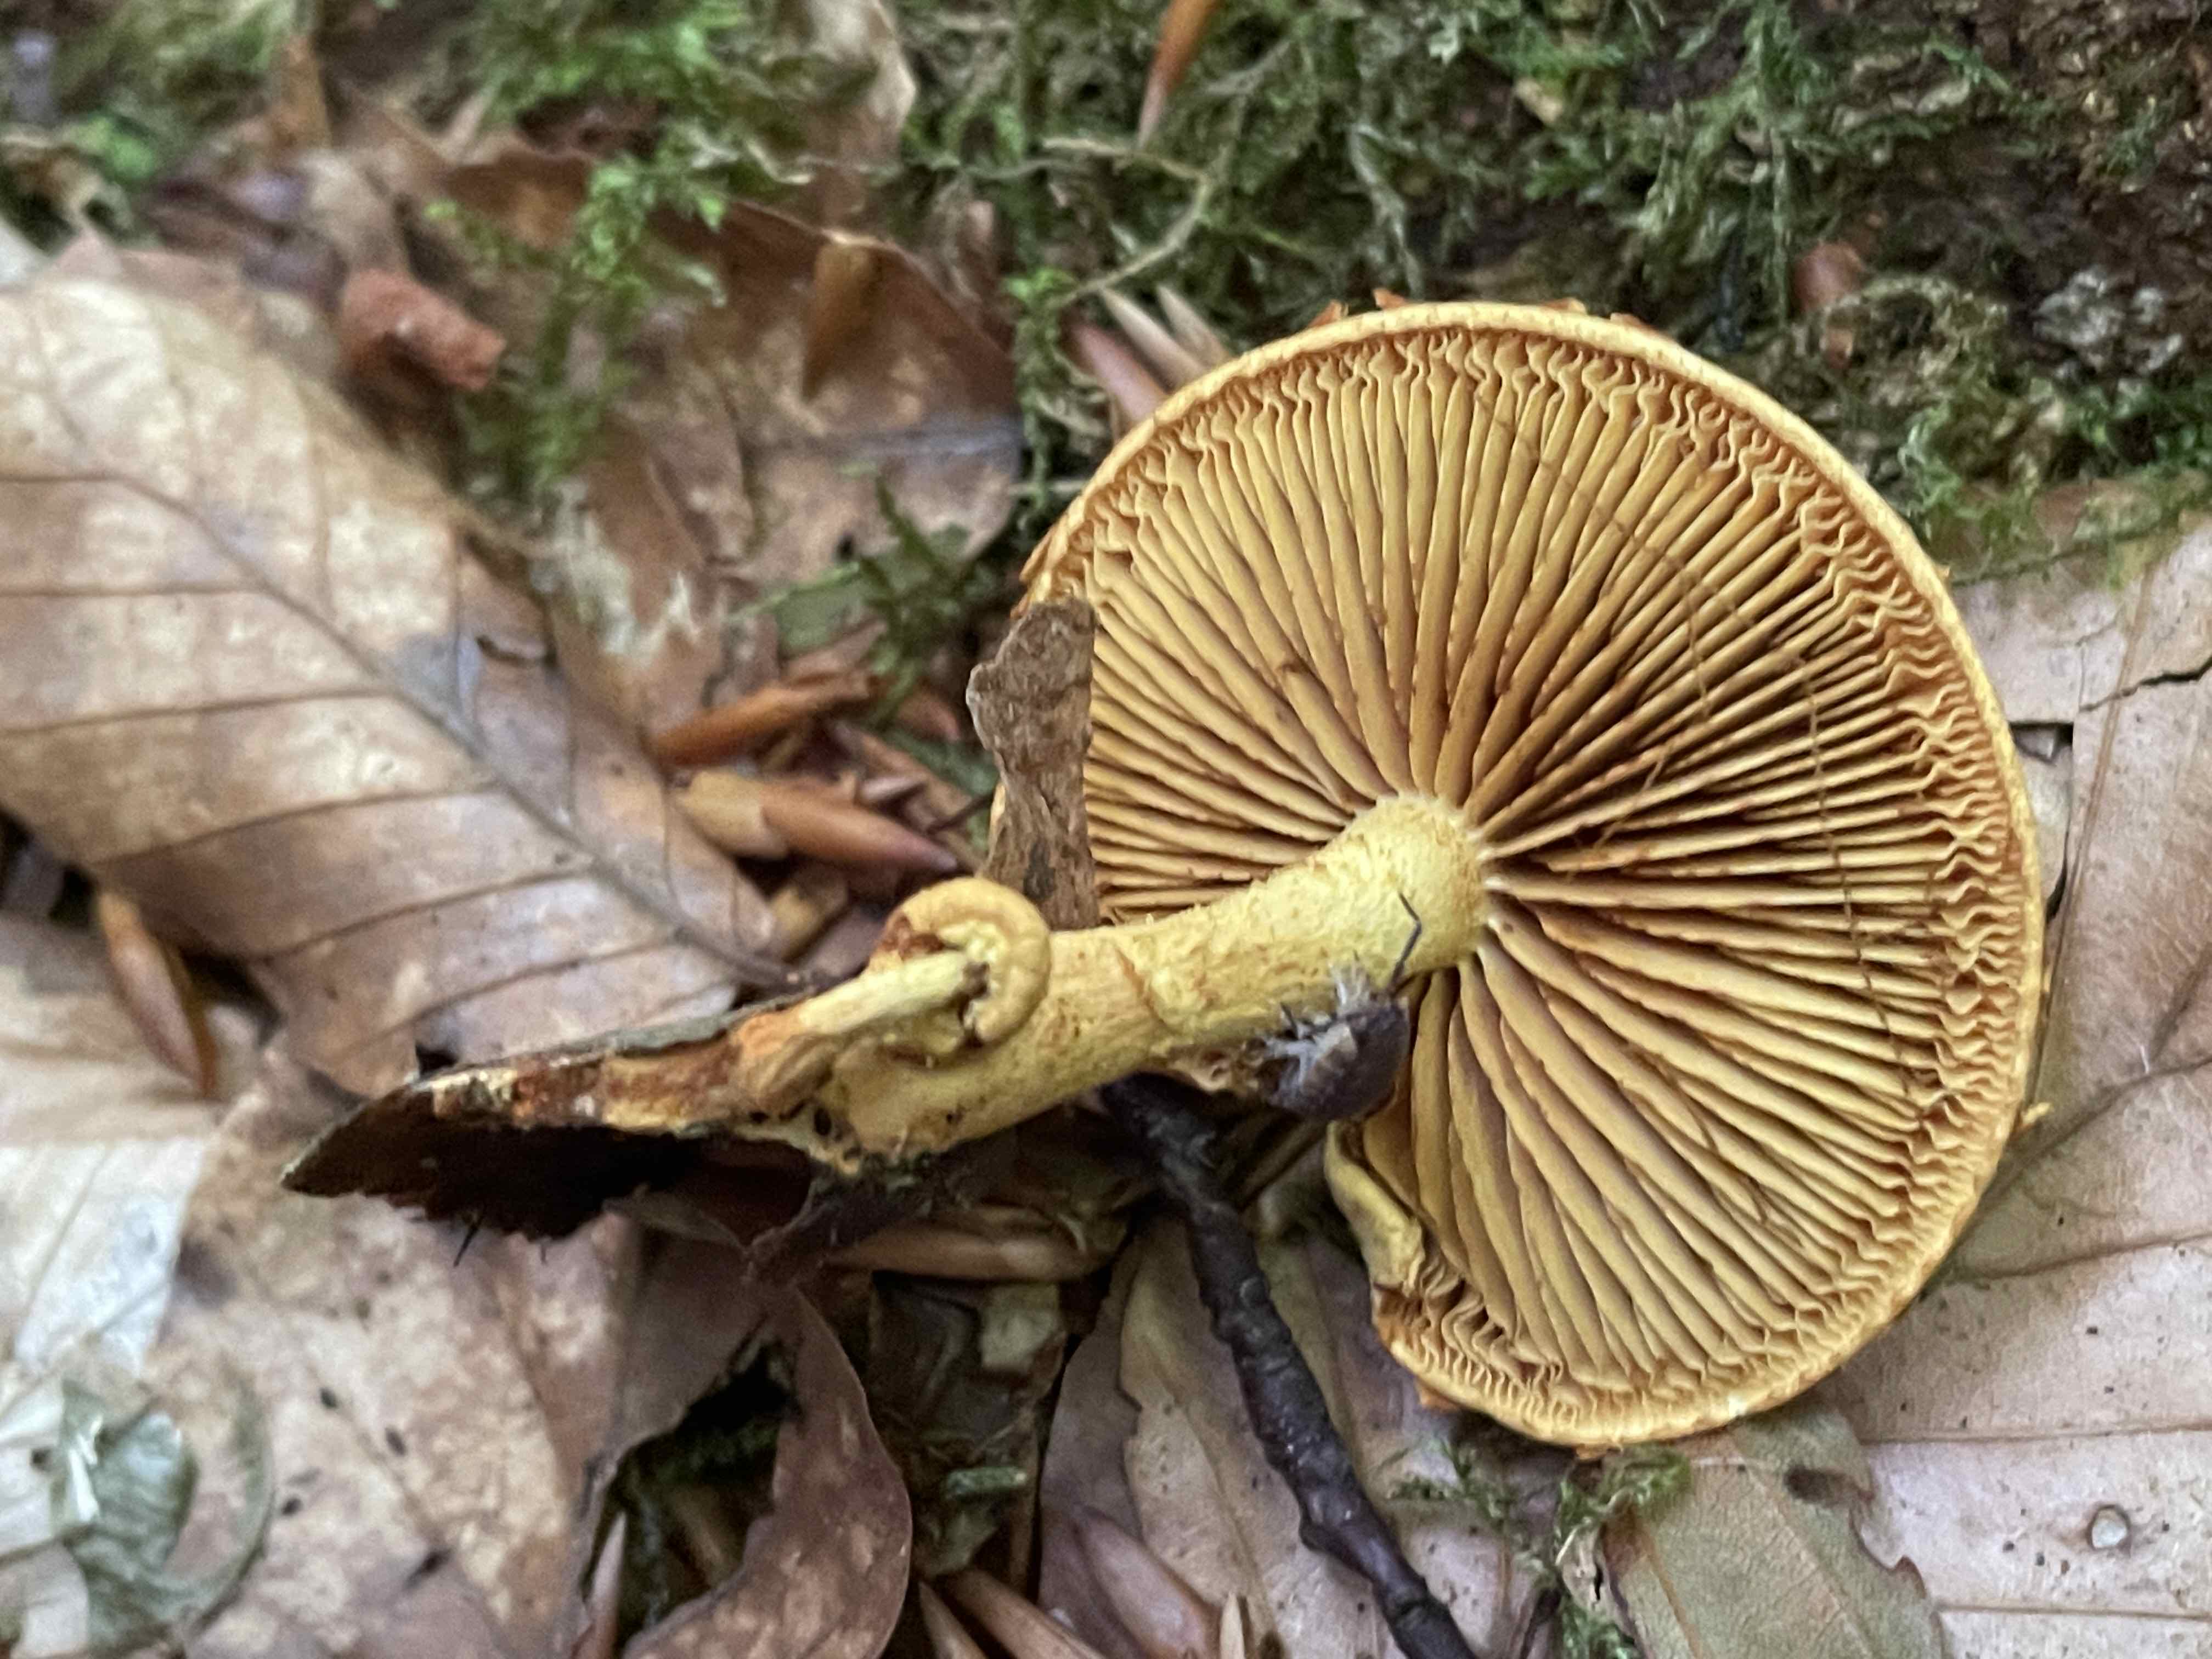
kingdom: Fungi
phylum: Basidiomycota
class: Agaricomycetes
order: Agaricales
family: Strophariaceae
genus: Pholiota
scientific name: Pholiota tuberculosa
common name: finskællet skælhat
